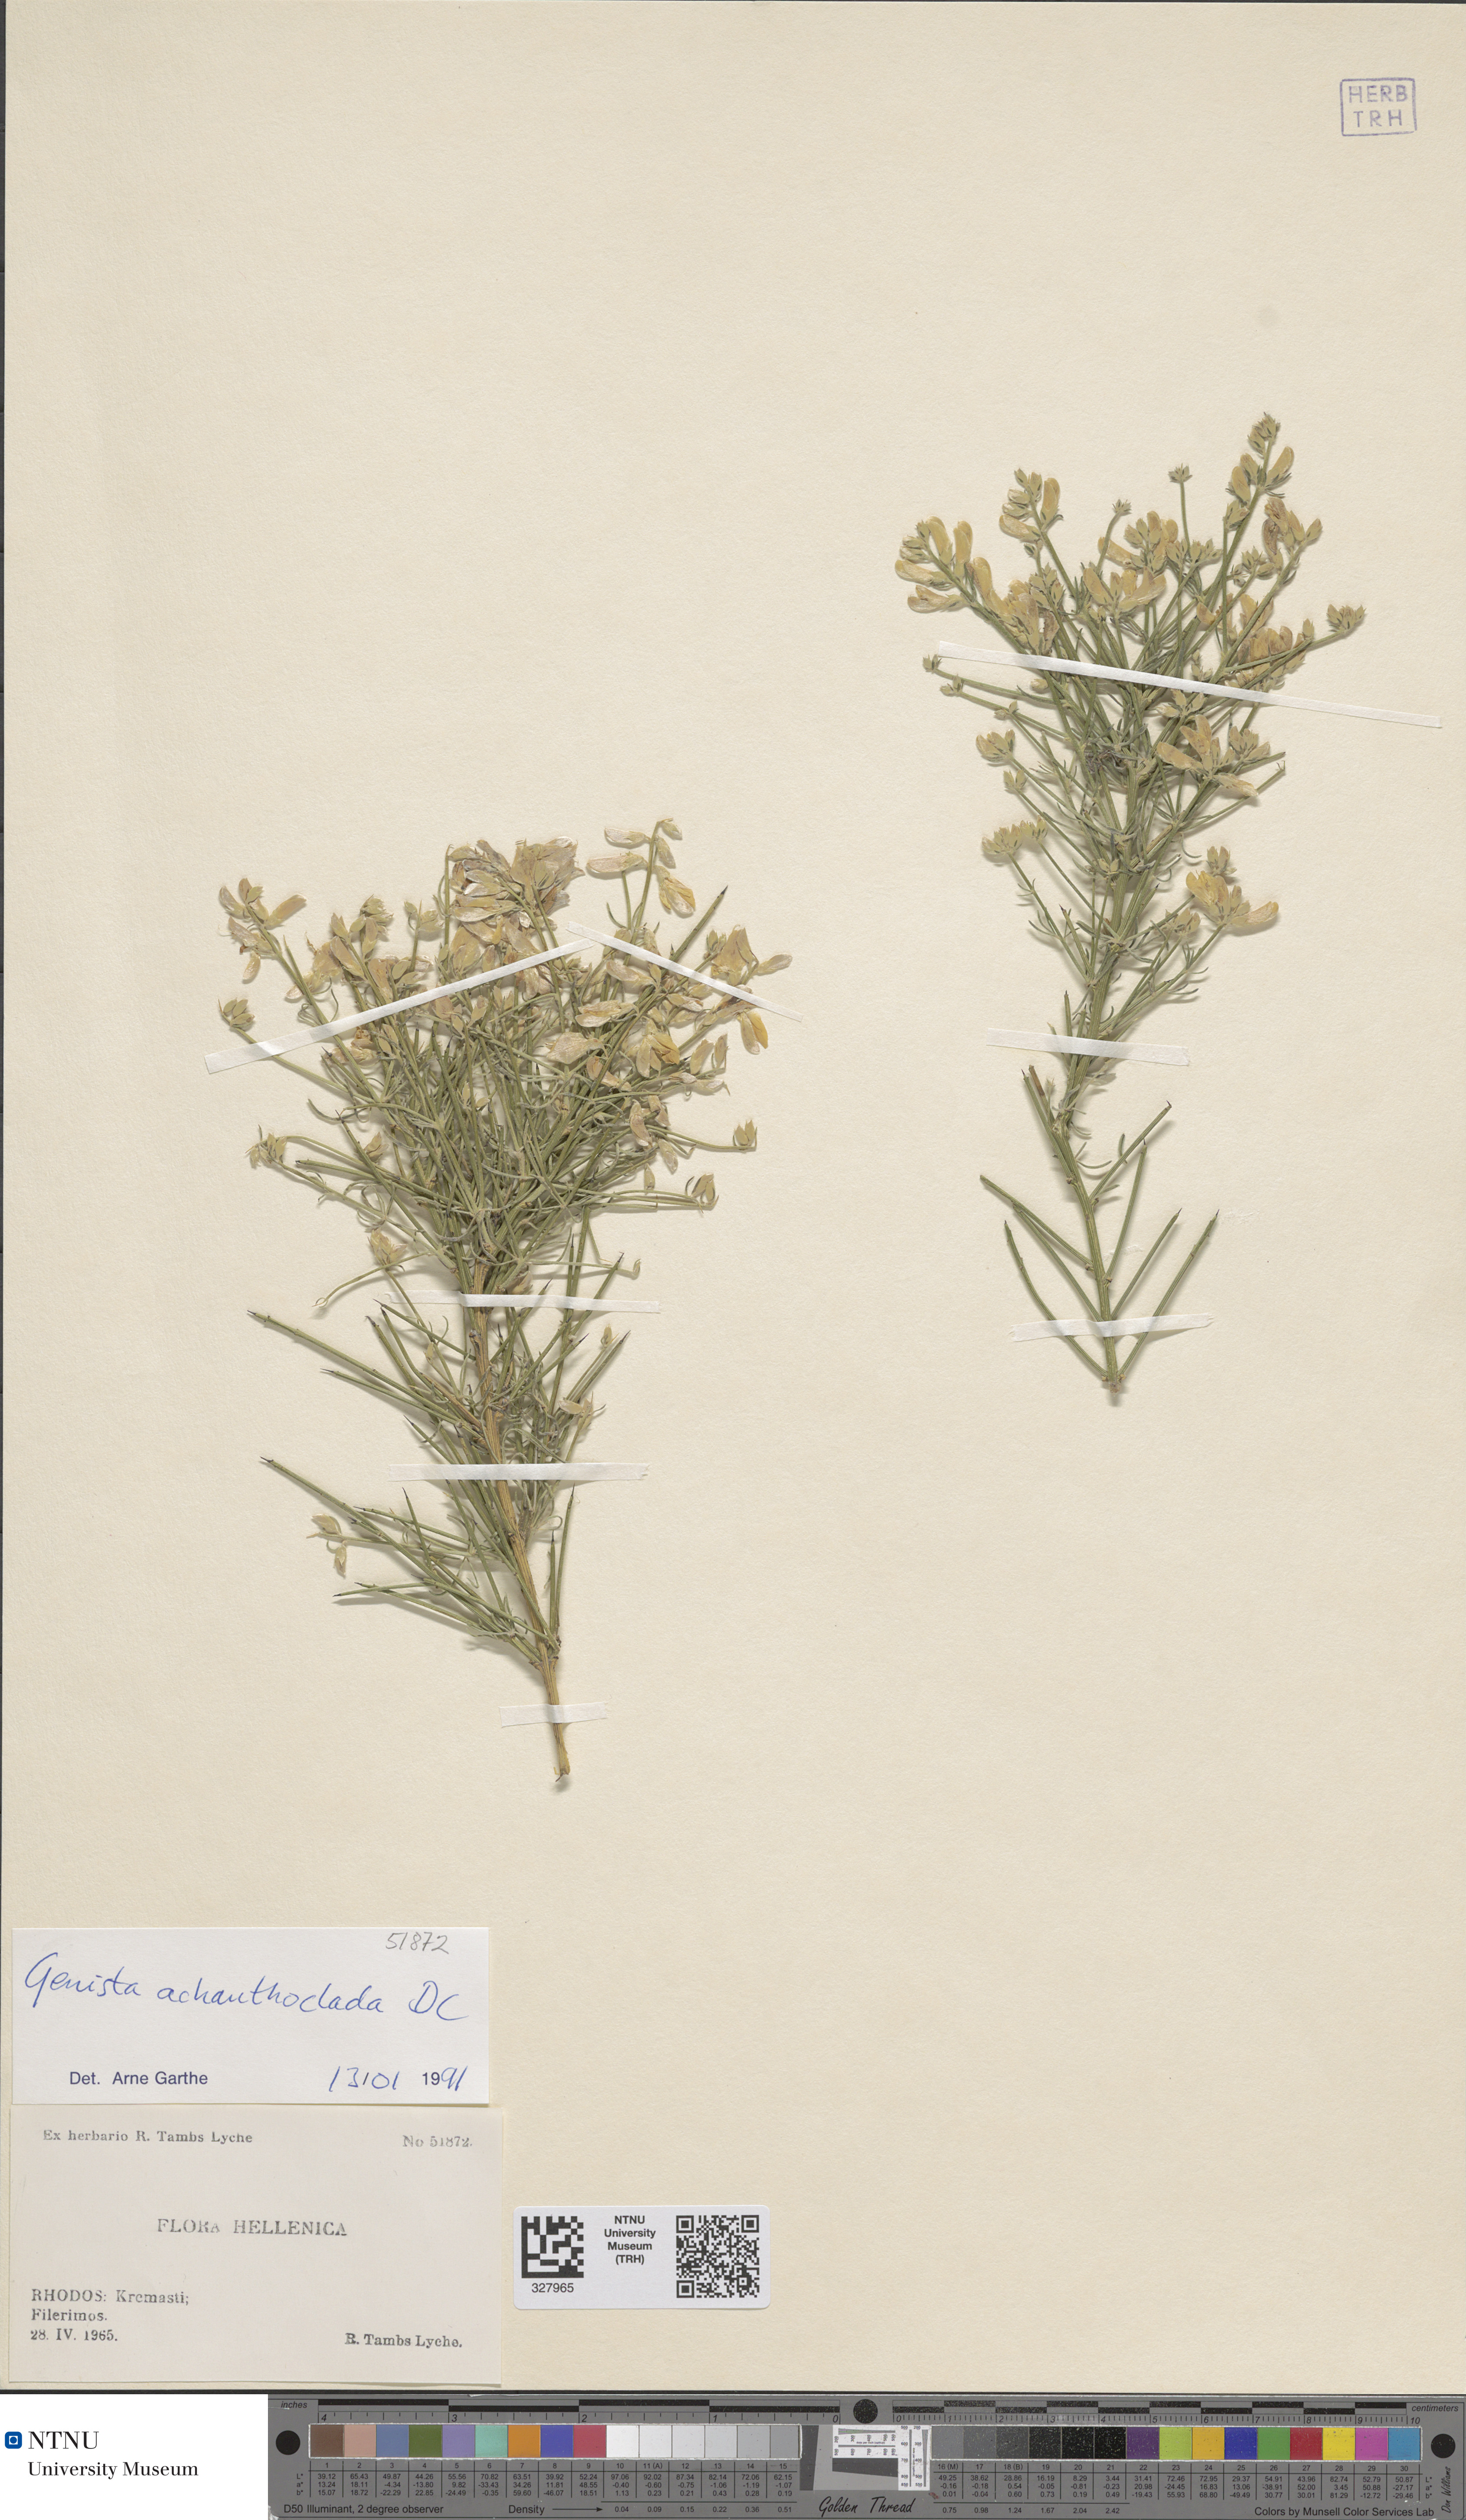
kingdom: Plantae
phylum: Tracheophyta
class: Magnoliopsida
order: Fabales
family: Fabaceae
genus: Genista
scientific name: Genista acanthoclada
